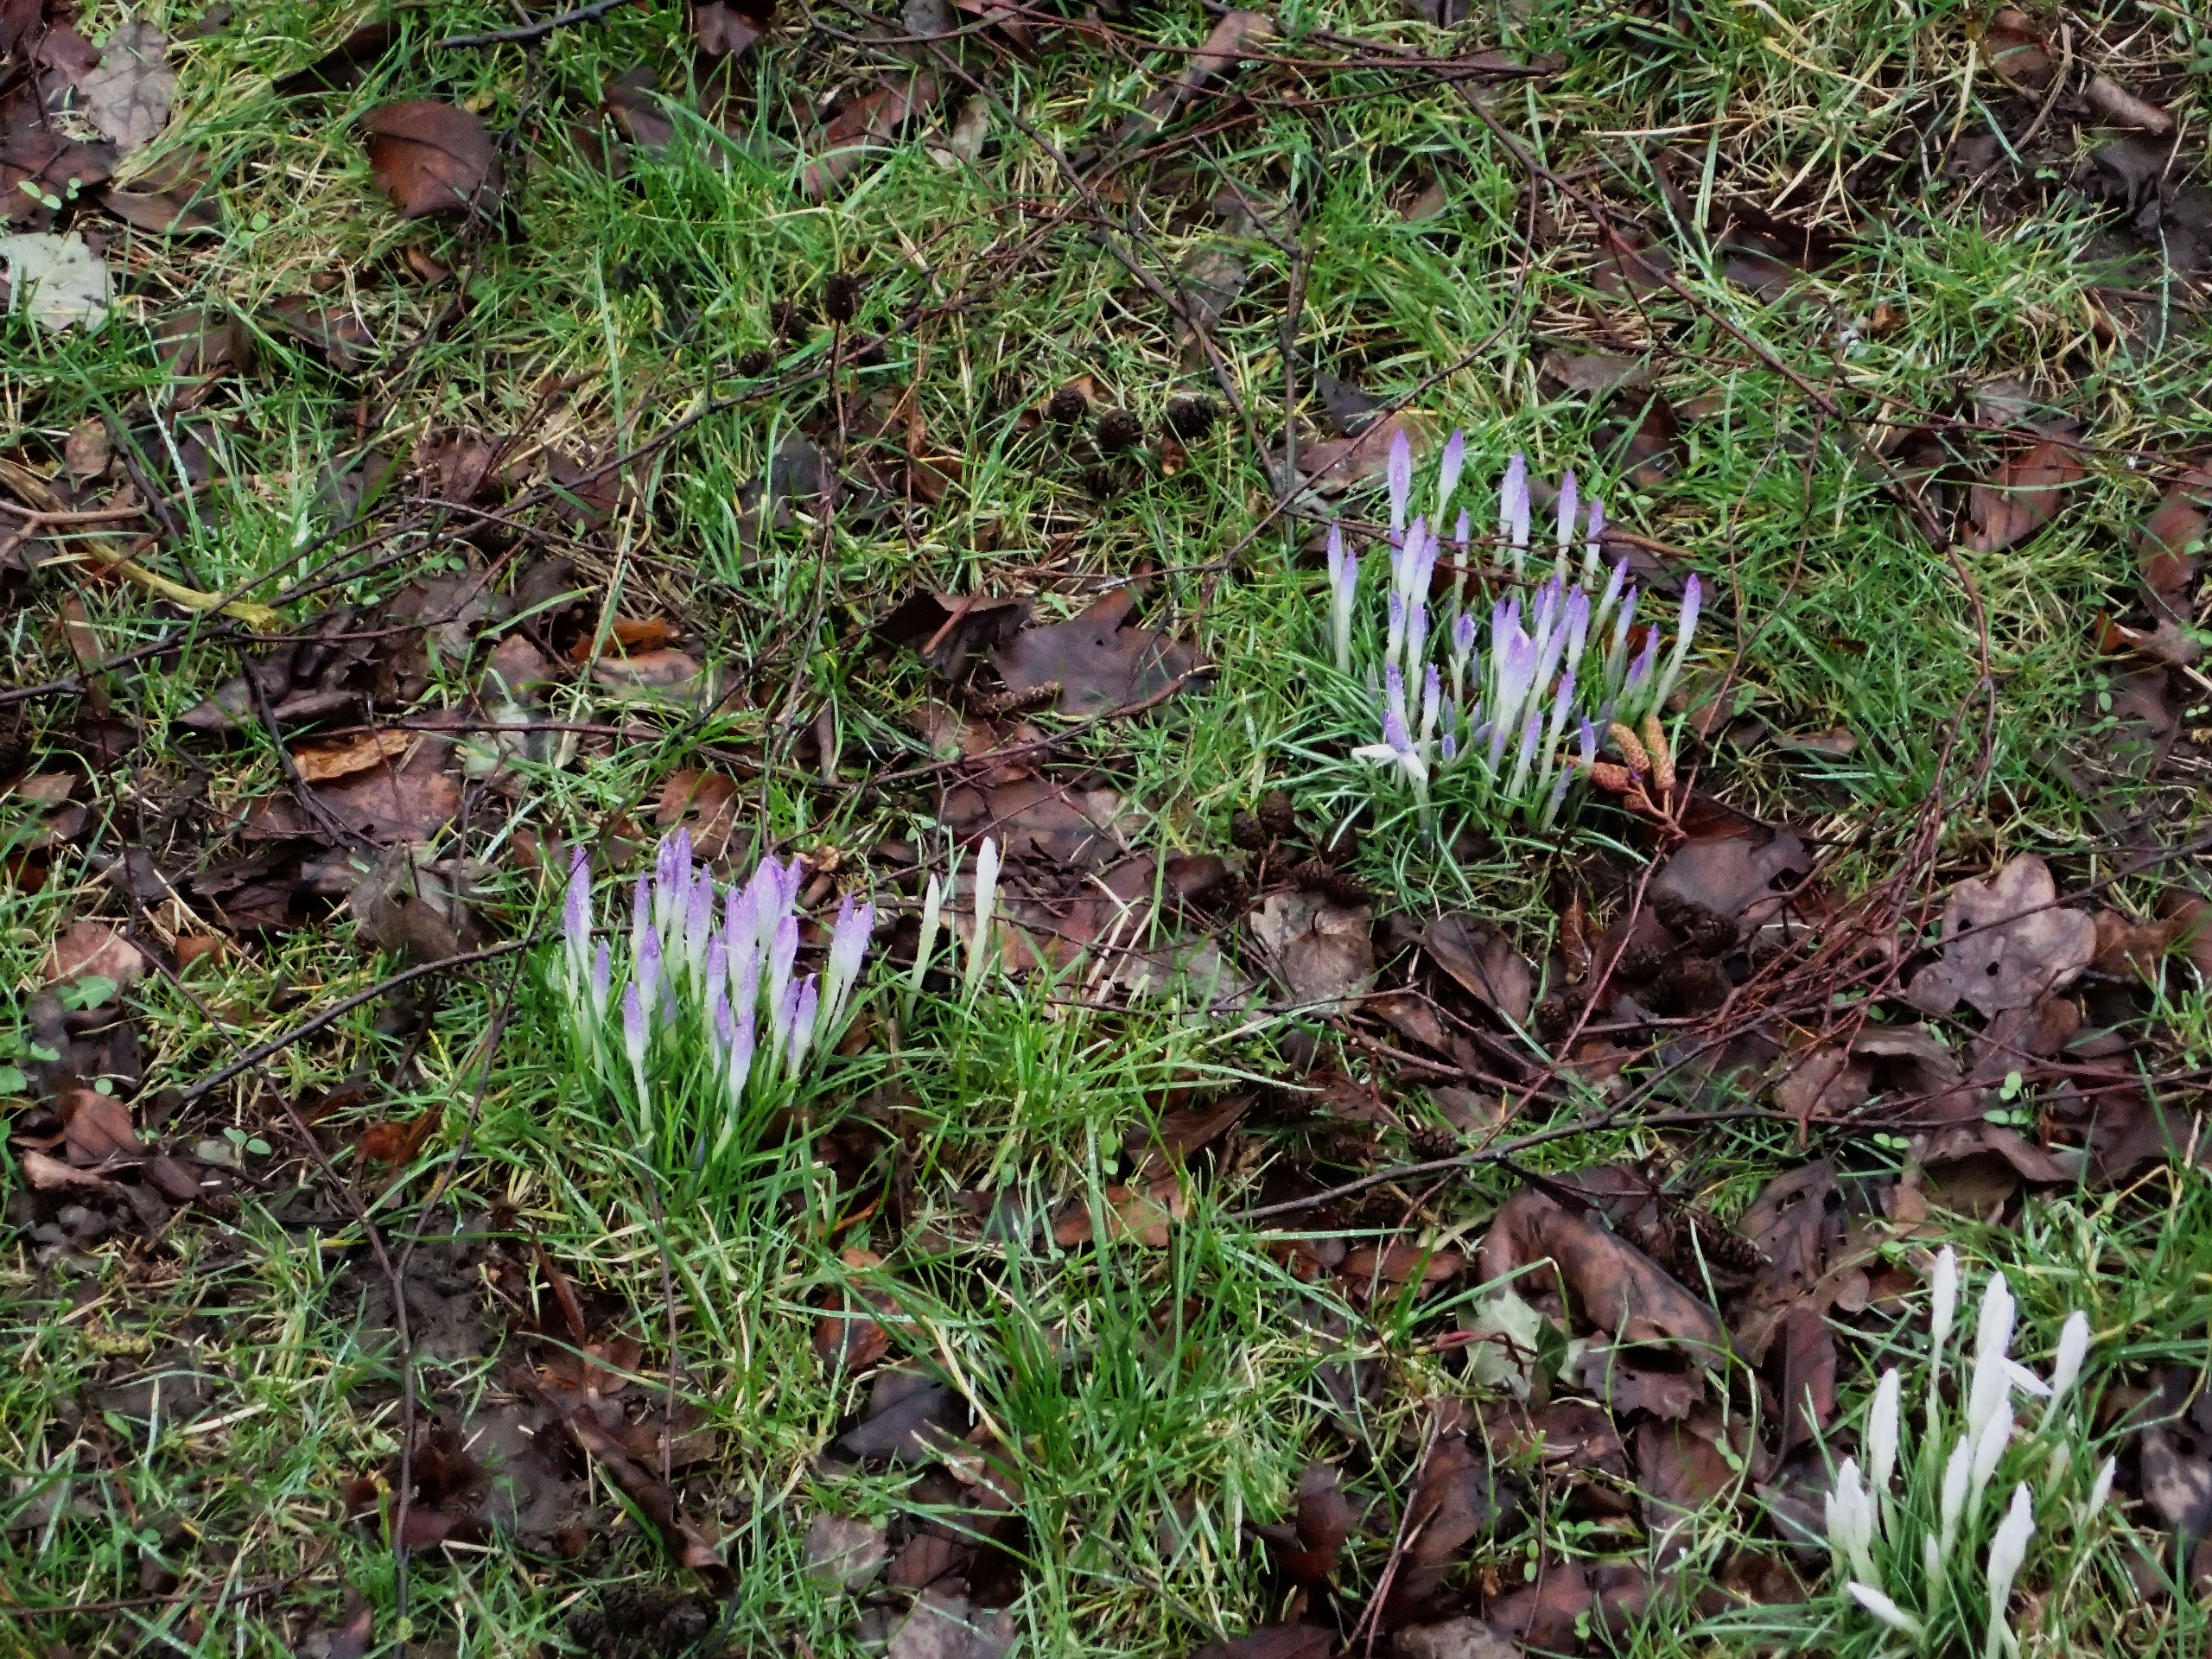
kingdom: Plantae
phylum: Tracheophyta
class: Liliopsida
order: Asparagales
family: Iridaceae
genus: Crocus
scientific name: Crocus tommasinianus
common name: Sne-krokus
